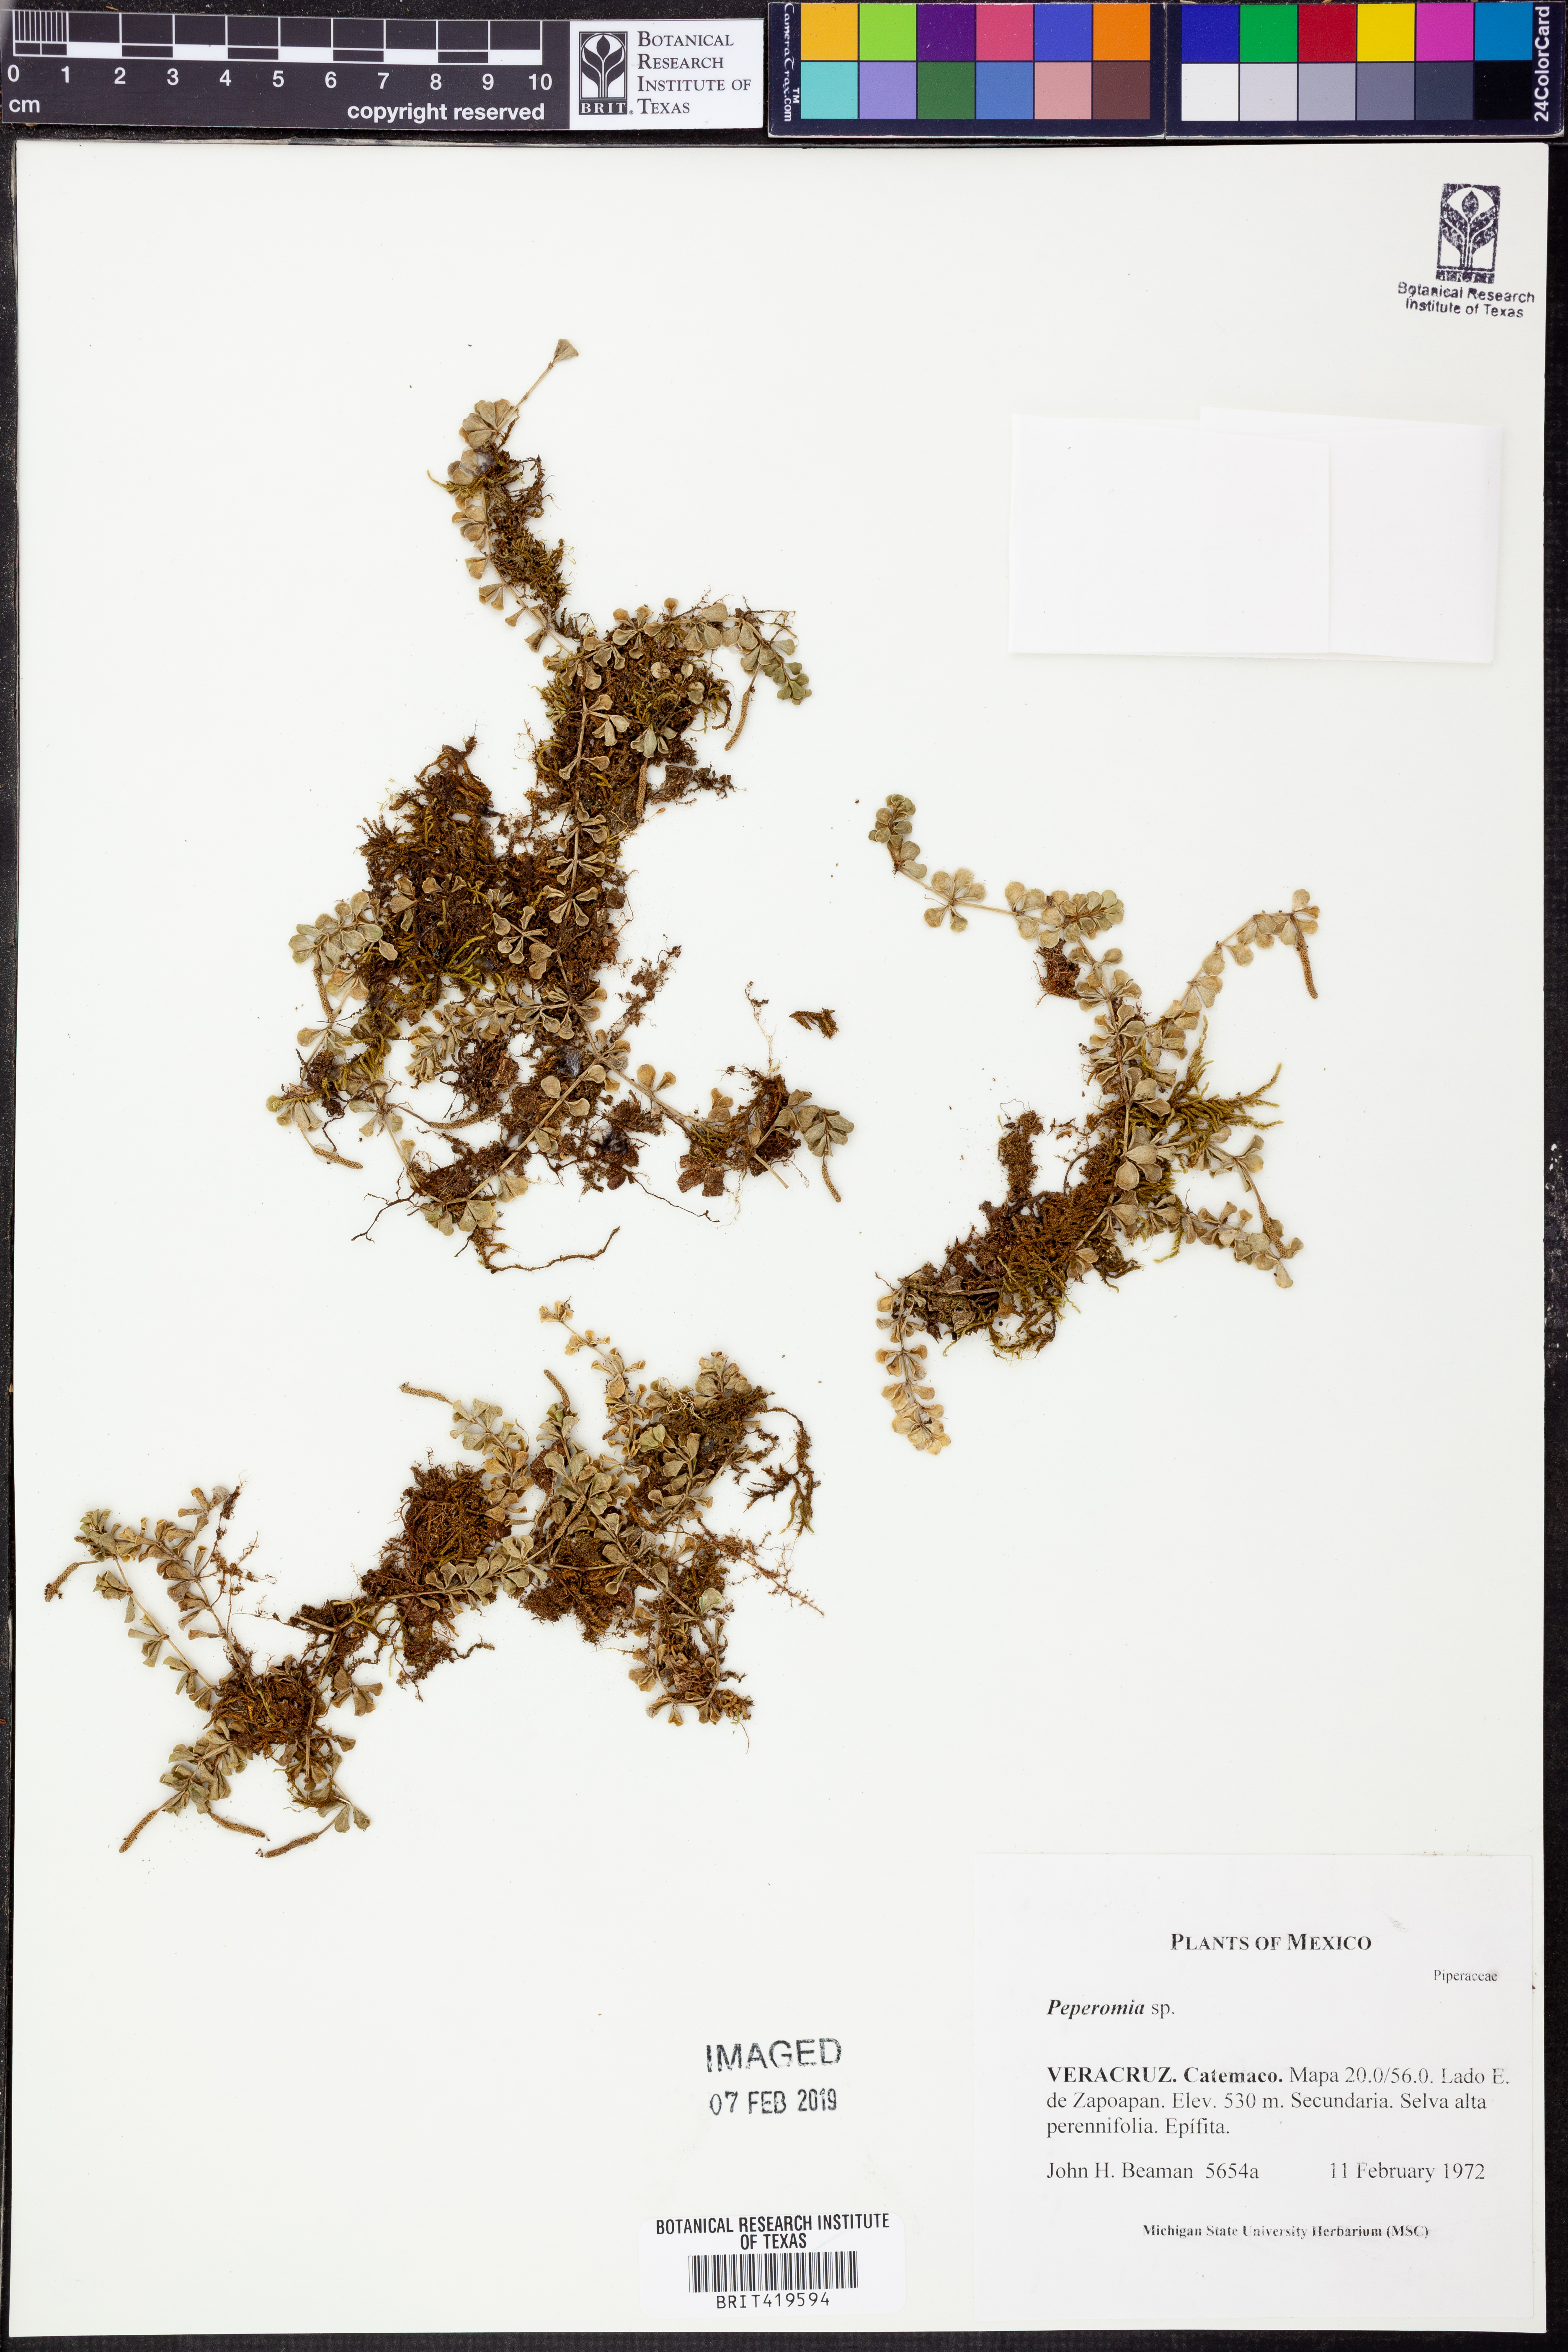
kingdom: Plantae
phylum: Tracheophyta
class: Magnoliopsida
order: Piperales
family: Piperaceae
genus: Peperomia
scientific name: Peperomia
